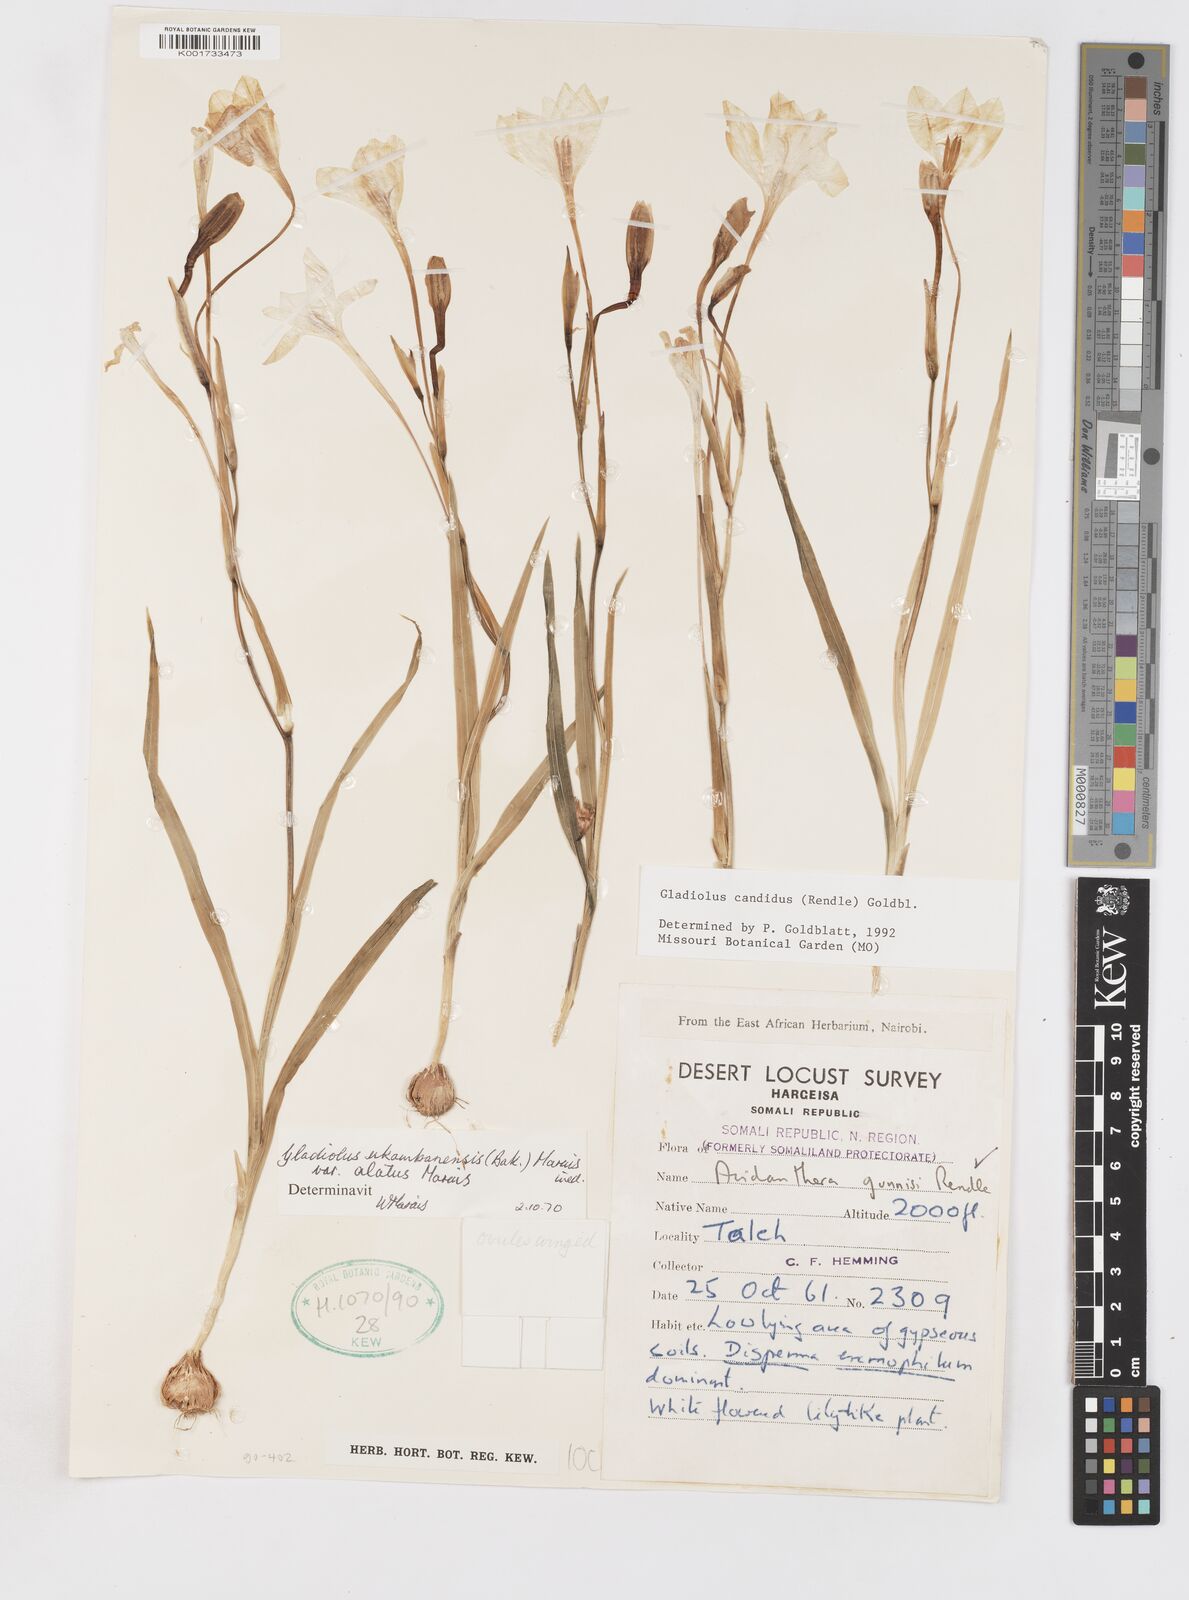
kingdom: Plantae
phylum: Tracheophyta
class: Liliopsida
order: Asparagales
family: Iridaceae
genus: Gladiolus
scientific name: Gladiolus candidus
